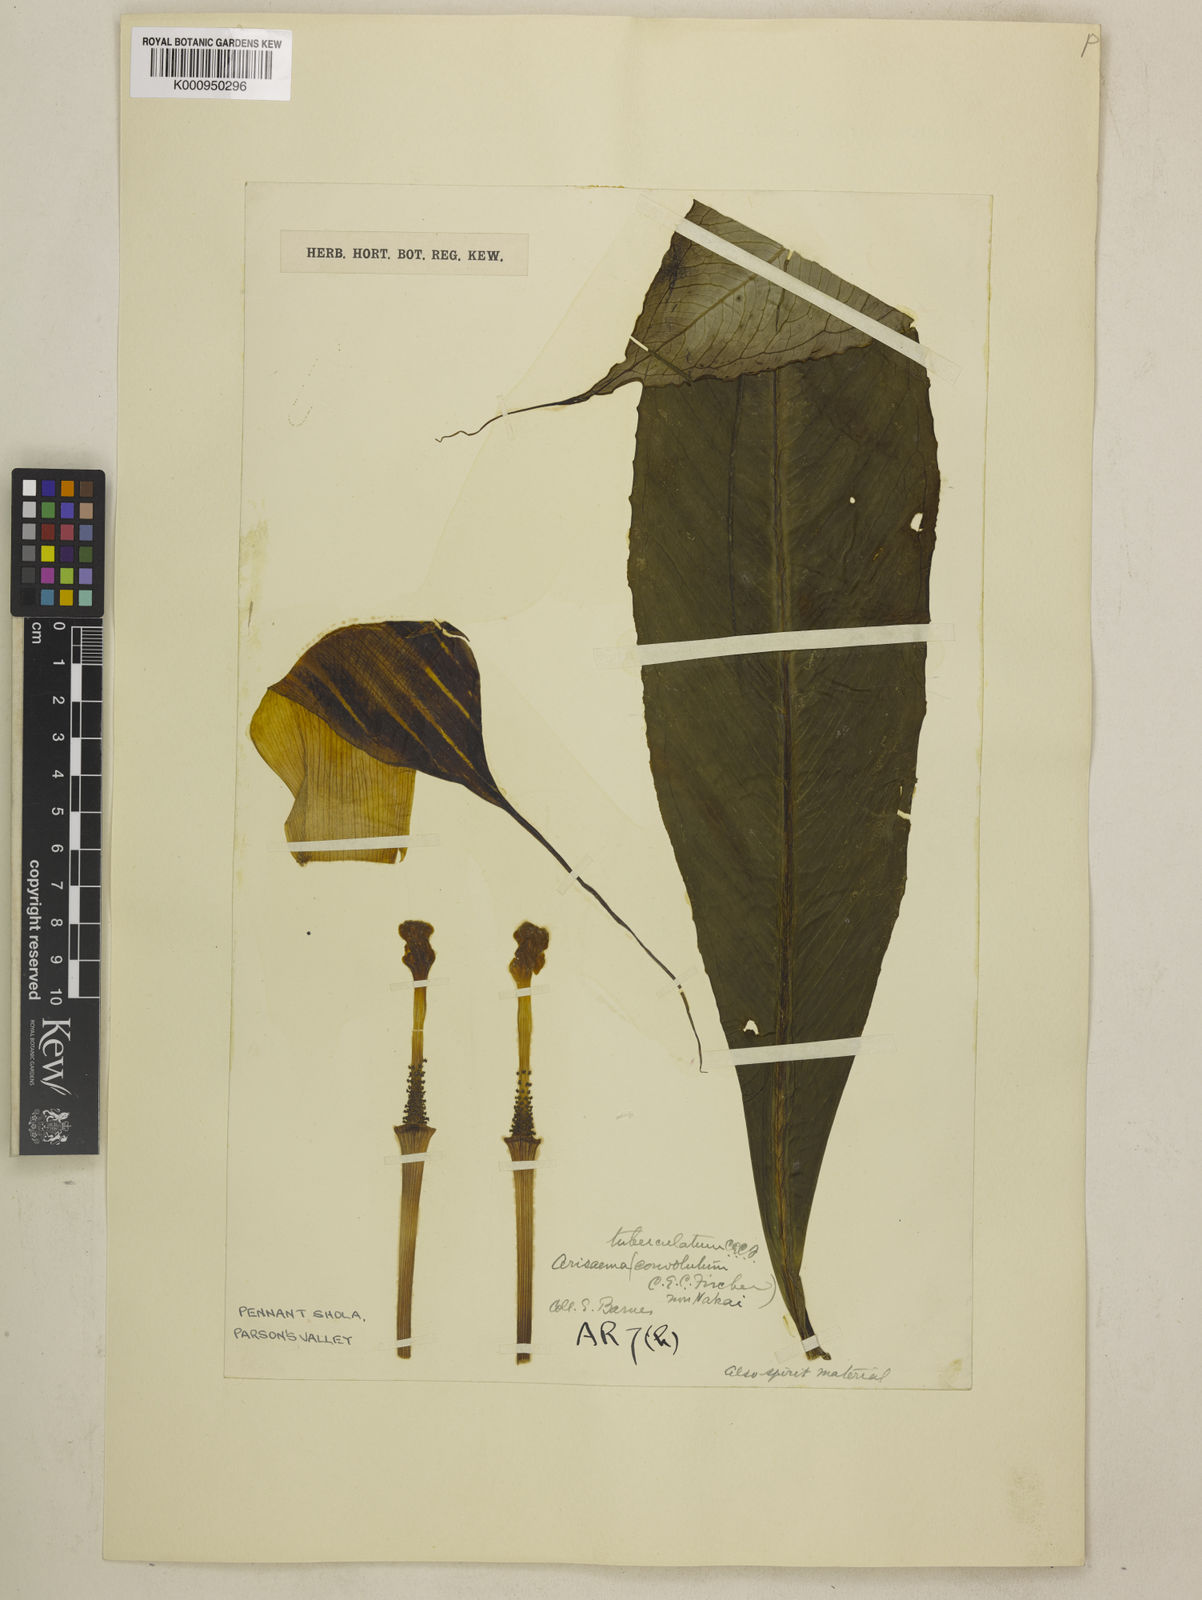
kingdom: Plantae
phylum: Tracheophyta
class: Liliopsida
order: Alismatales
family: Araceae
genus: Arisaema
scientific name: Arisaema tuberculatum
